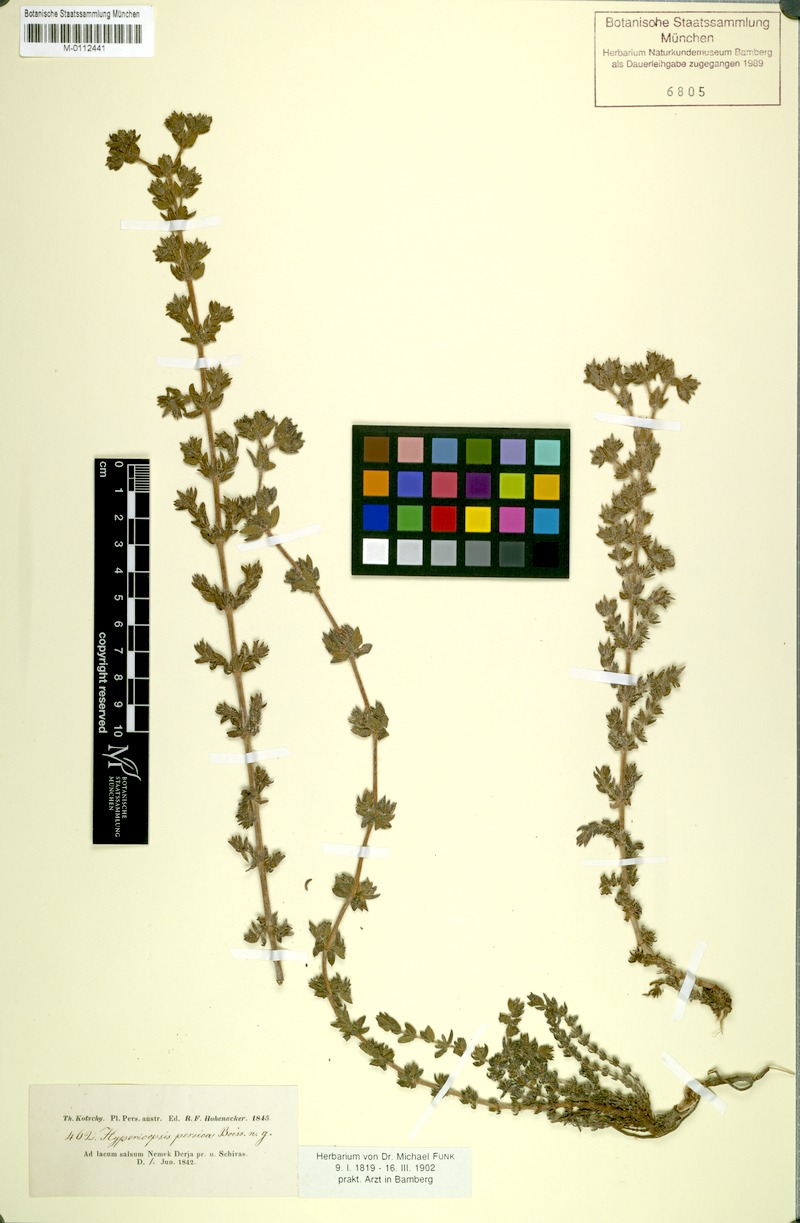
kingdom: Plantae
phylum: Tracheophyta
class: Magnoliopsida
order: Caryophyllales
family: Frankeniaceae
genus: Frankenia
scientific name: Frankenia persica
